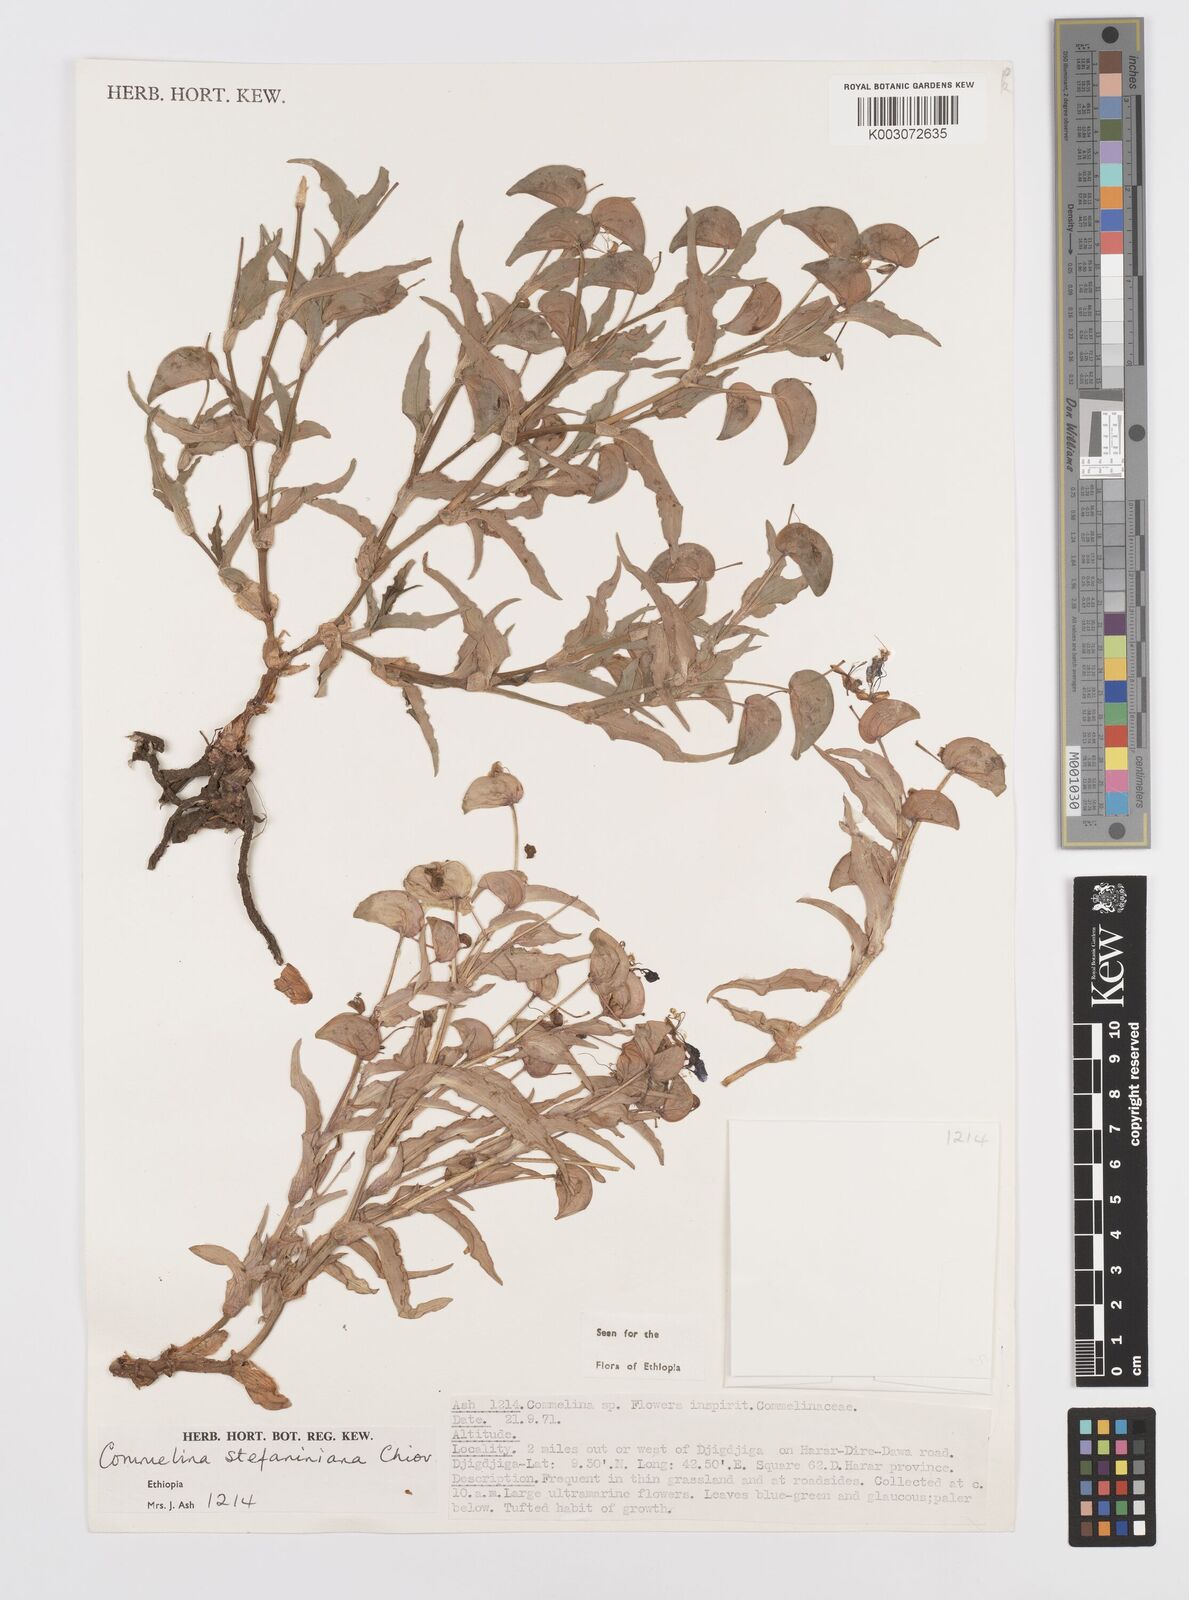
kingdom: Plantae
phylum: Tracheophyta
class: Liliopsida
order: Commelinales
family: Commelinaceae
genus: Commelina
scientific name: Commelina stefaniniana
